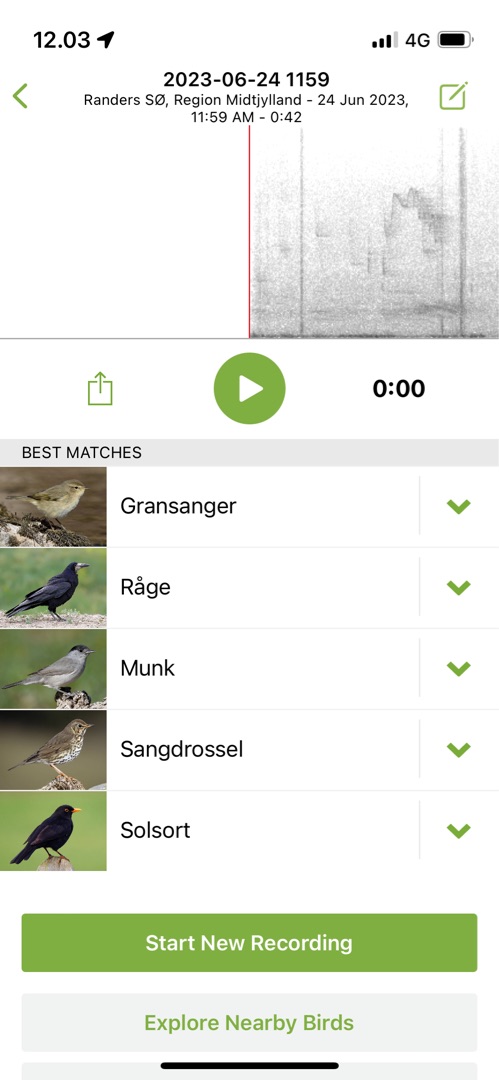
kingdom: Animalia
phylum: Chordata
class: Aves
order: Passeriformes
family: Turdidae
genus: Turdus
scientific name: Turdus merula
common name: Solsort
